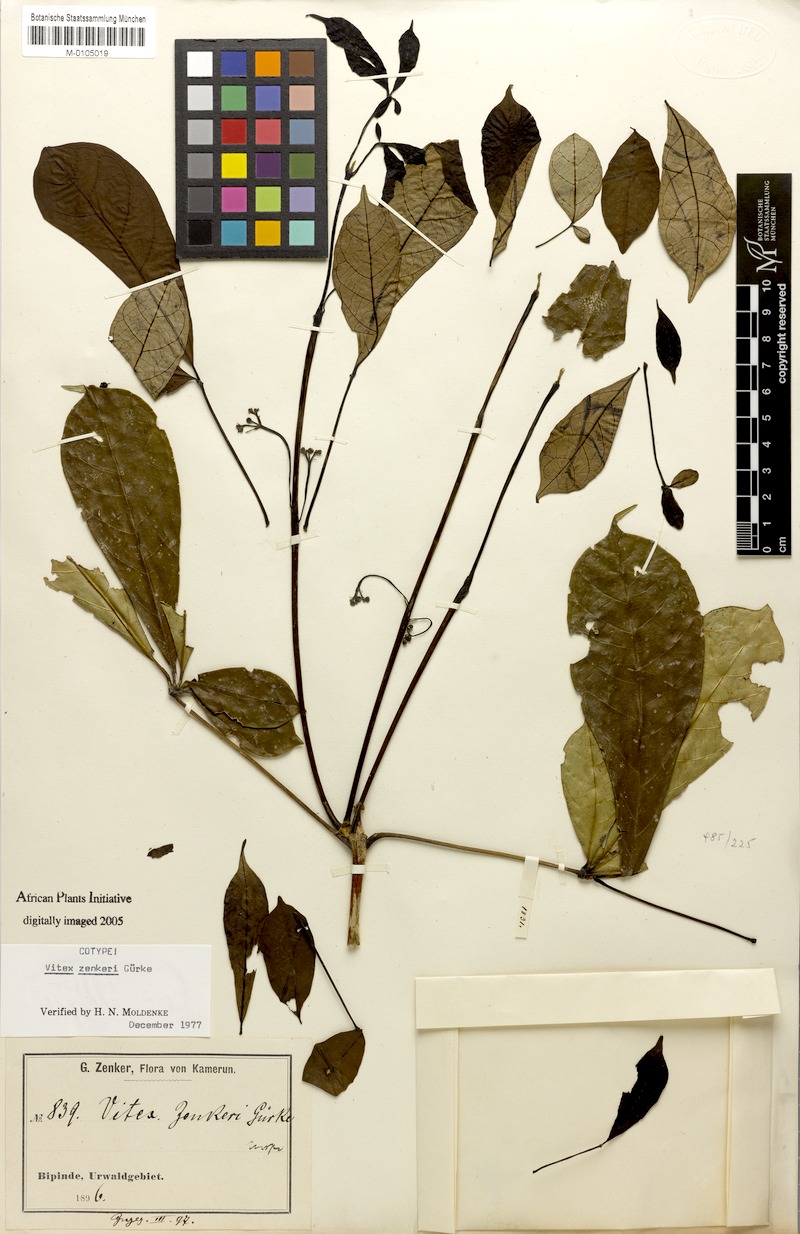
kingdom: Plantae
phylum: Tracheophyta
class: Magnoliopsida
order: Lamiales
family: Lamiaceae
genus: Vitex
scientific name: Vitex zenkeri
